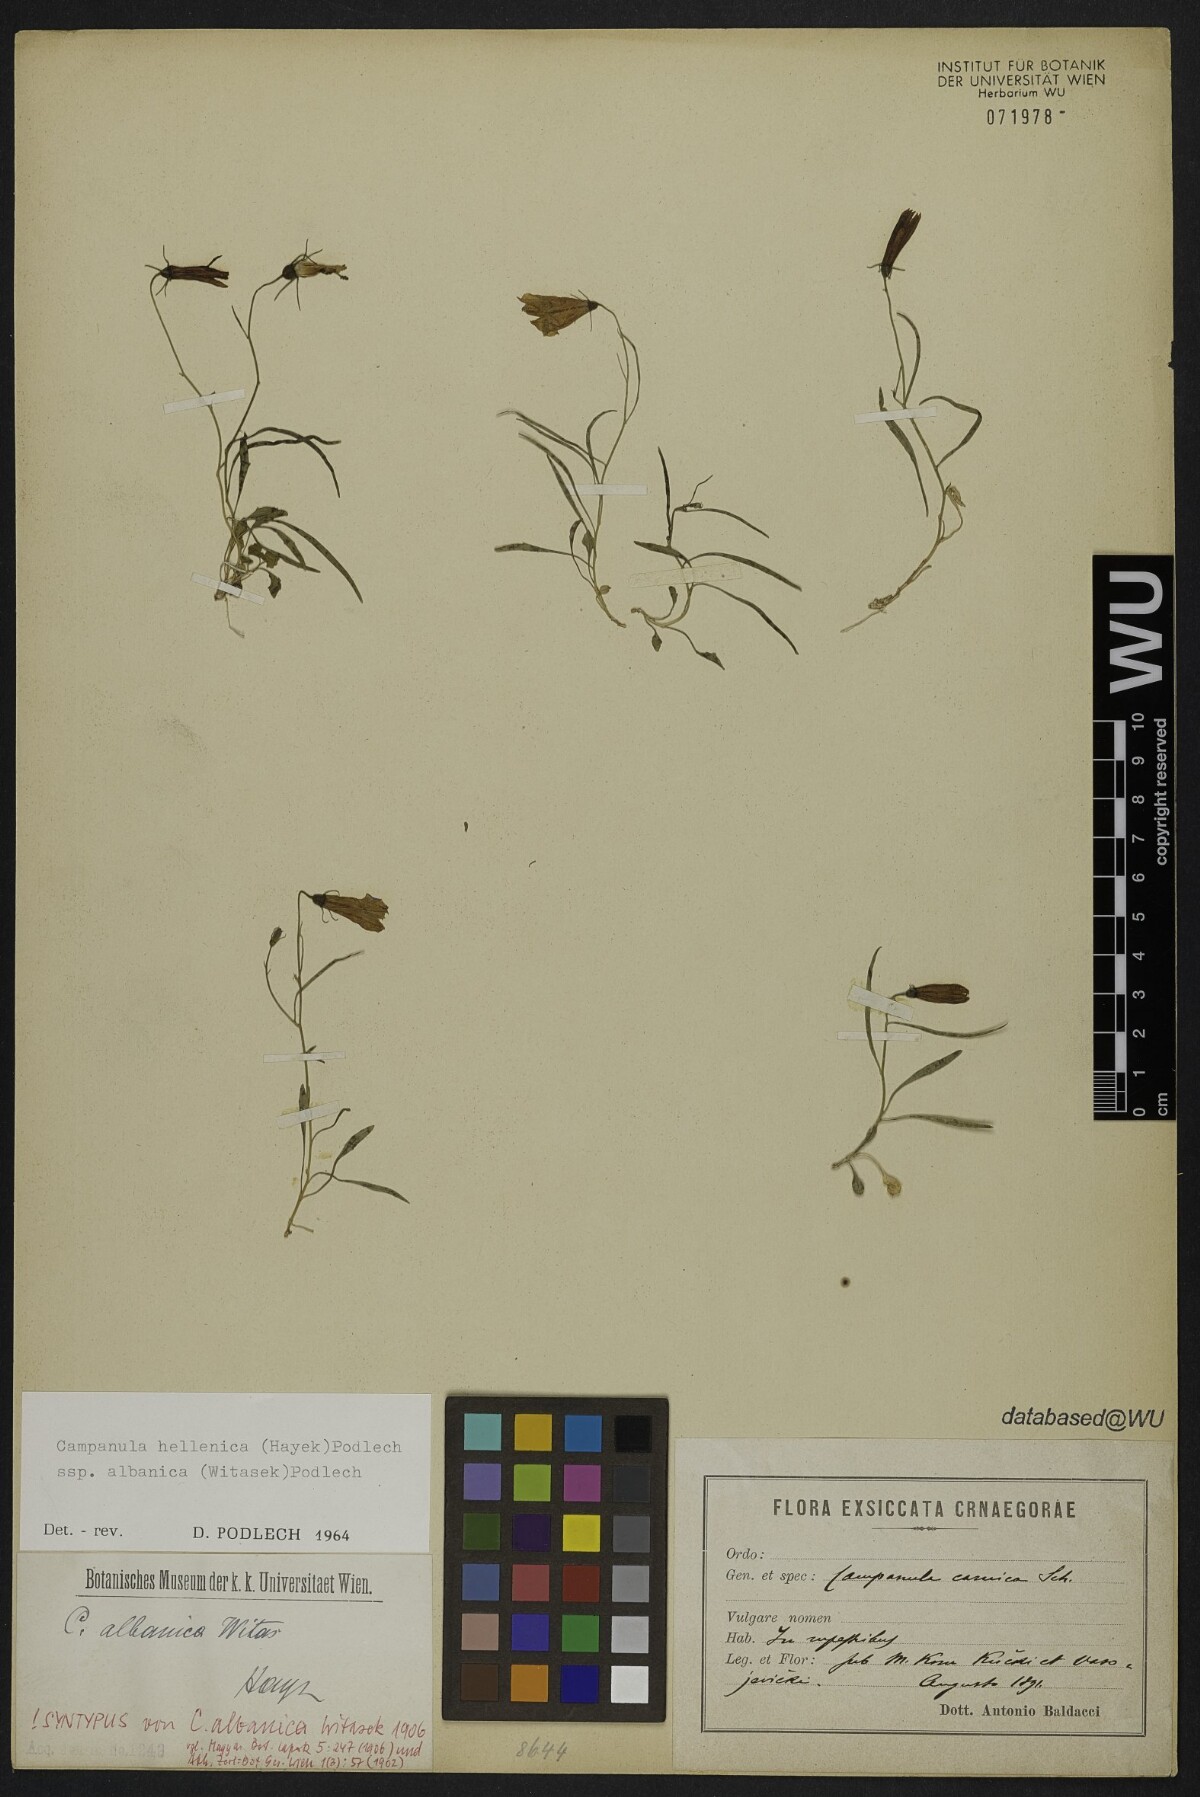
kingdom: Plantae
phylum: Tracheophyta
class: Magnoliopsida
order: Asterales
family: Campanulaceae
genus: Campanula
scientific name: Campanula albanica
